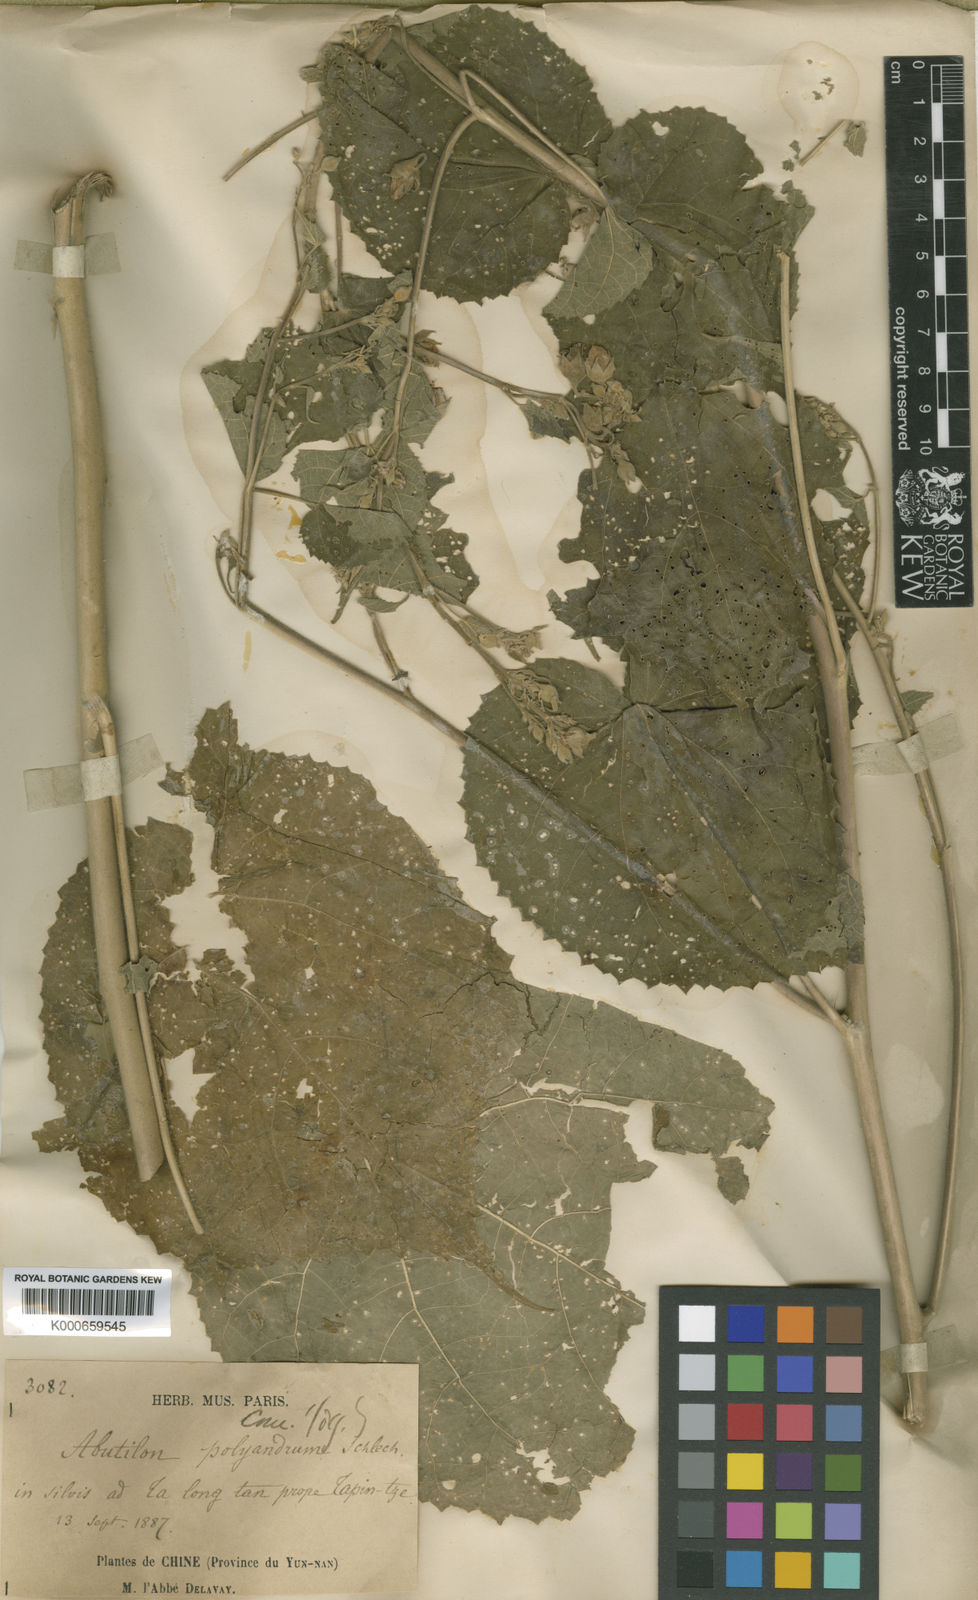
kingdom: Plantae
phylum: Tracheophyta
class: Magnoliopsida
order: Malvales
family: Malvaceae
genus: Abutilon
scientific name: Abutilon paniculatum
